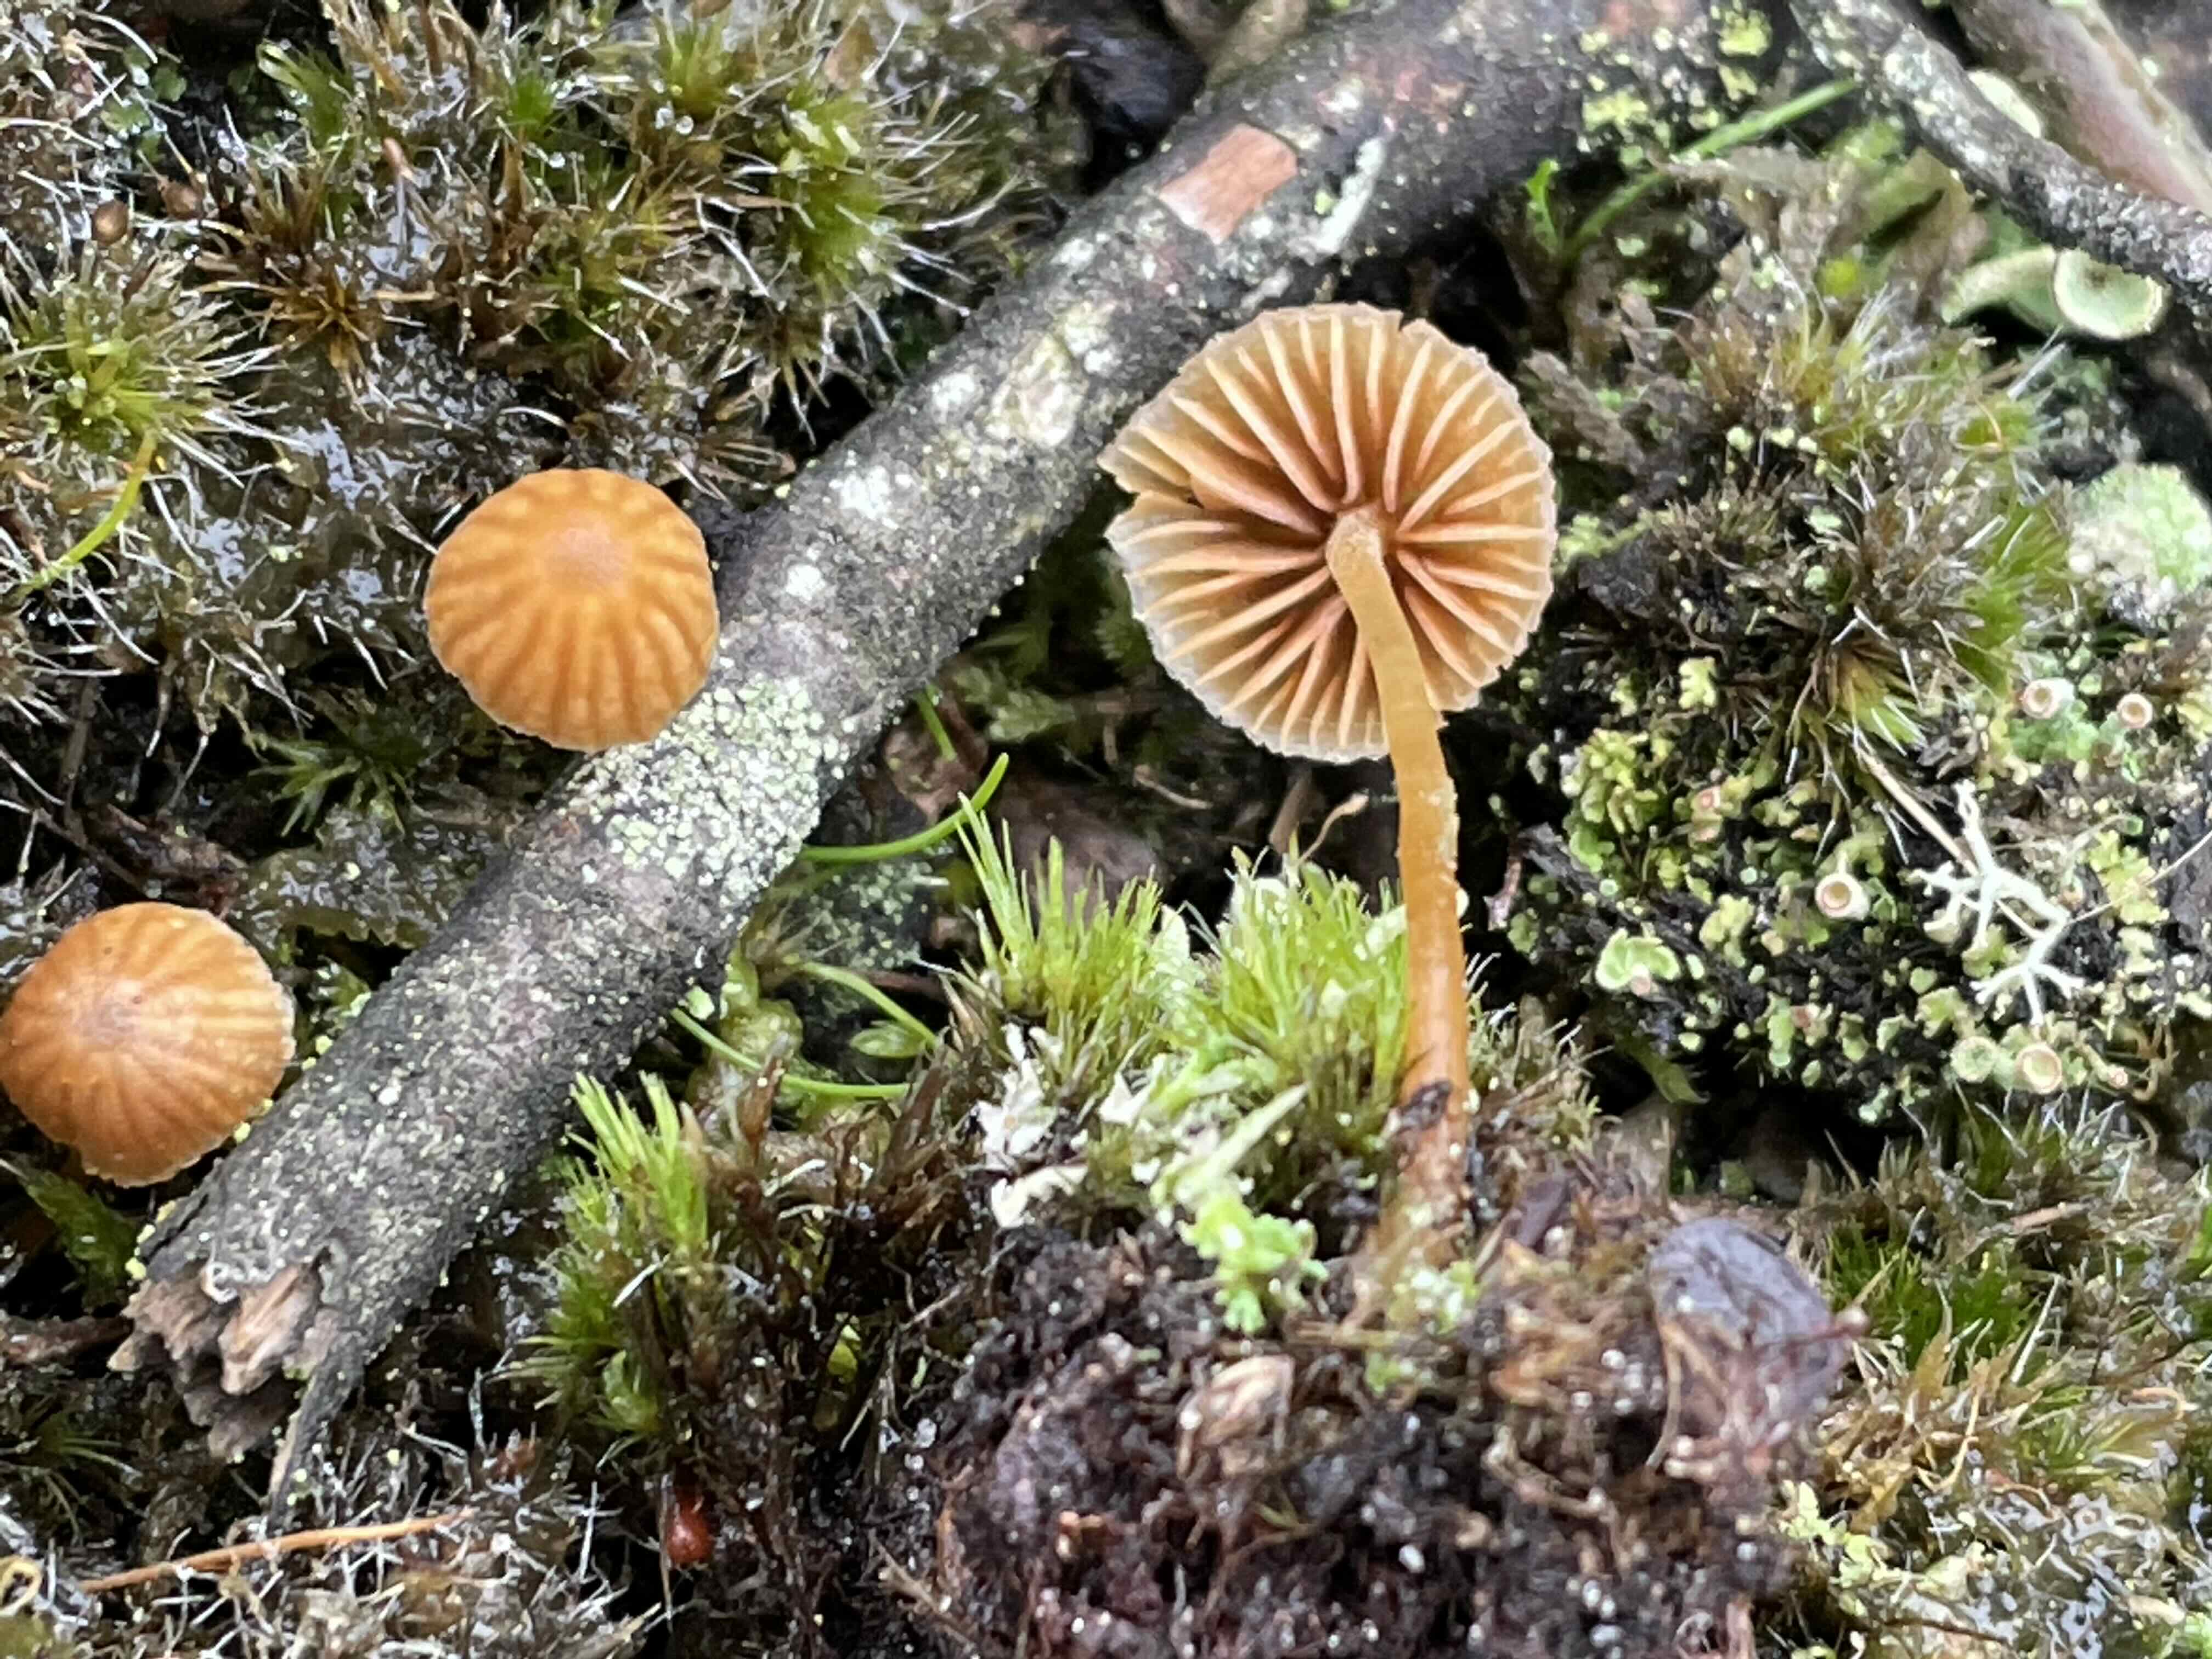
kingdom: Fungi
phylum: Basidiomycota
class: Agaricomycetes
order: Agaricales
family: Hymenogastraceae
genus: Galerina
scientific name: Galerina
